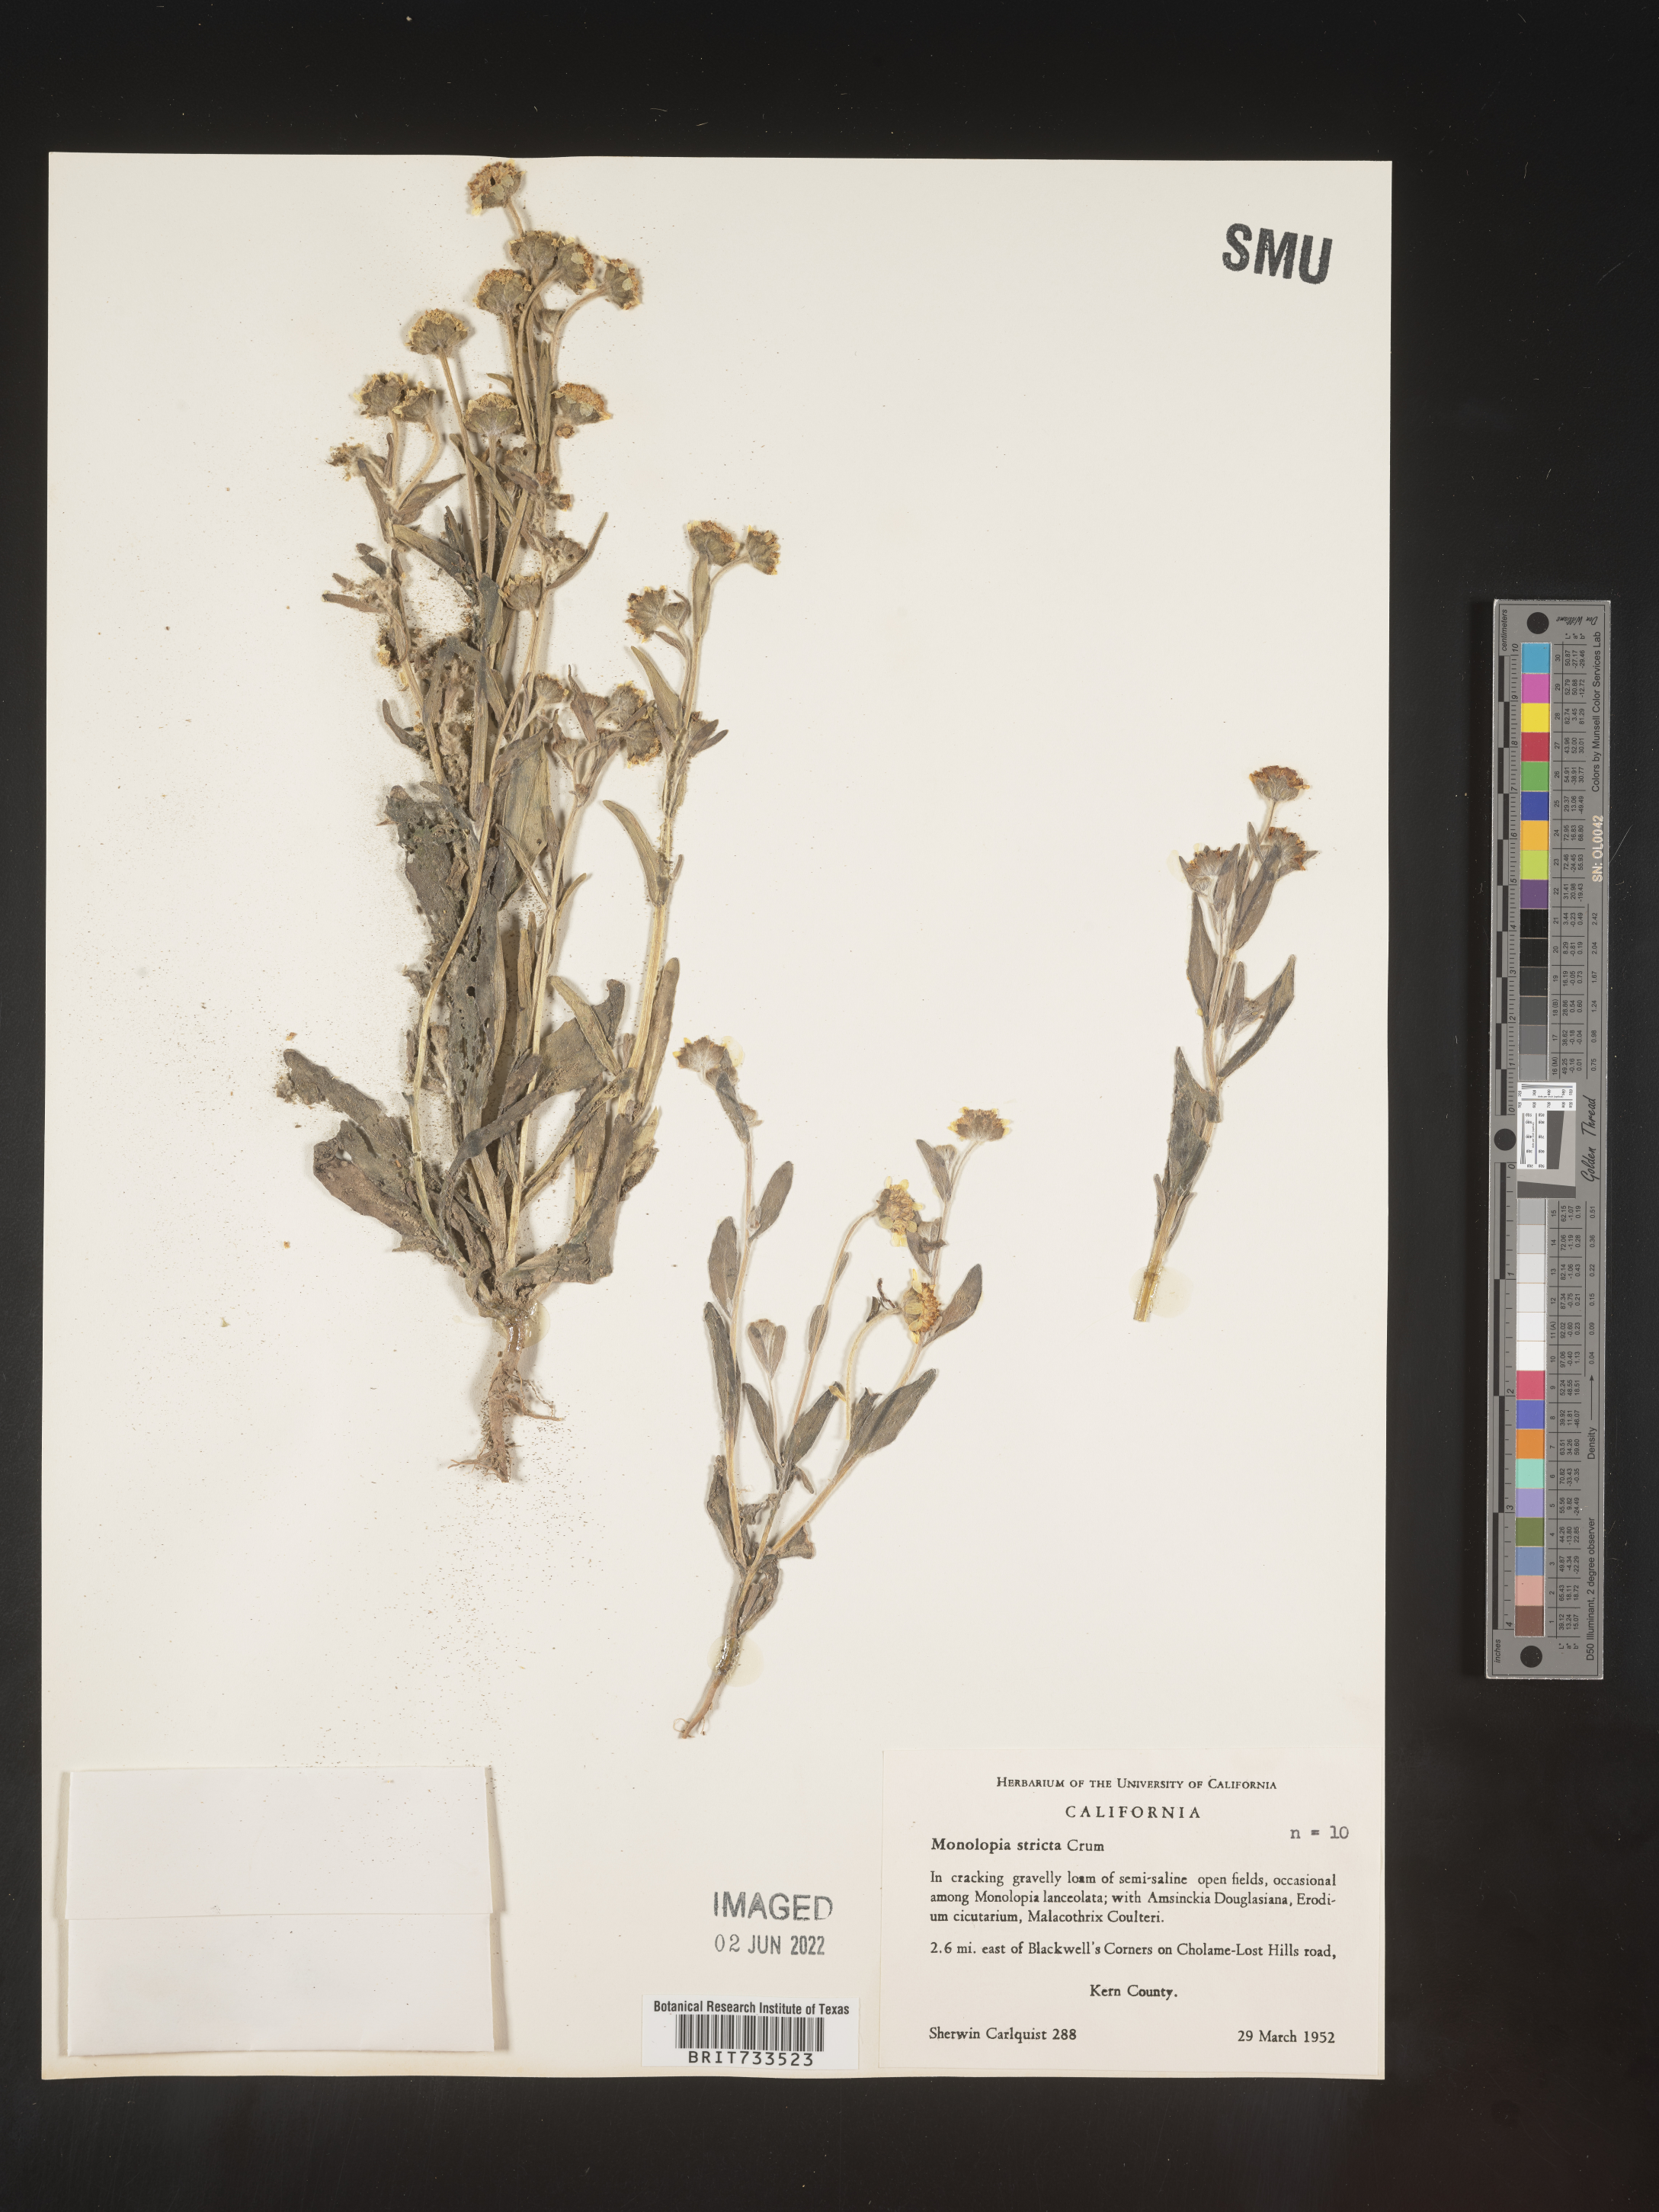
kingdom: Plantae
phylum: Tracheophyta
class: Magnoliopsida
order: Asterales
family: Asteraceae
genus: Monolopia
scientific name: Monolopia stricta
